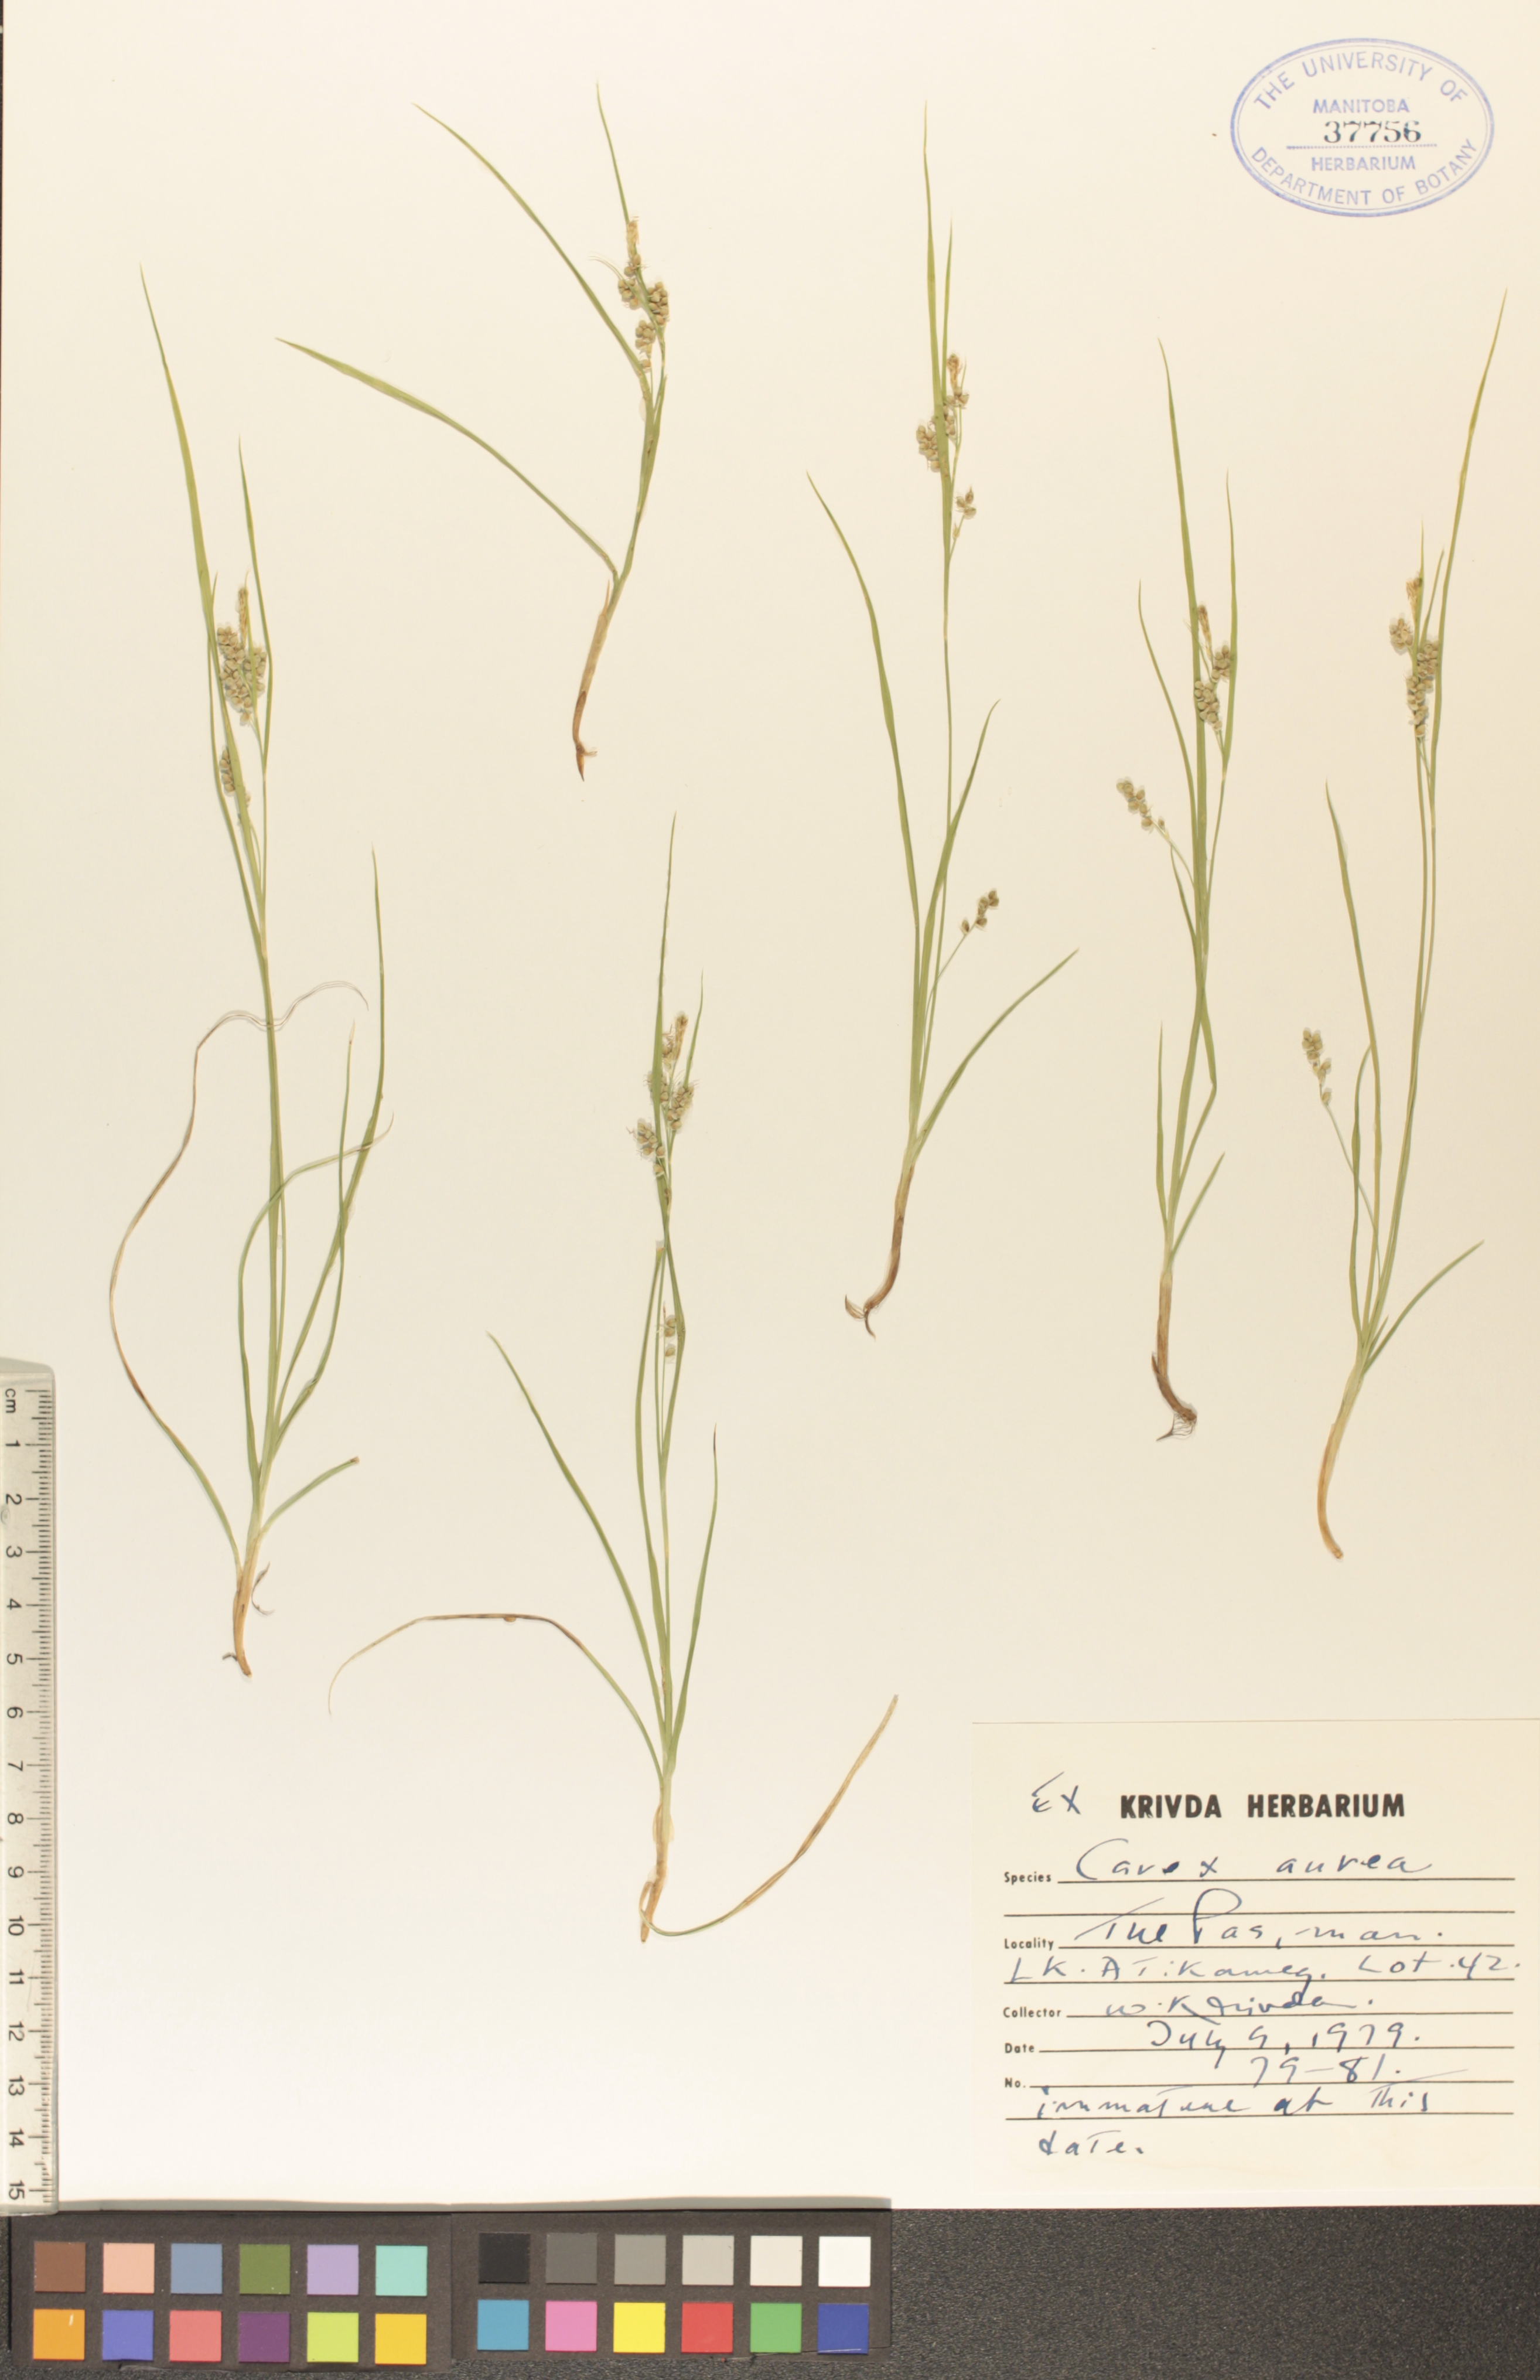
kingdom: Plantae
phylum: Tracheophyta
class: Liliopsida
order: Poales
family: Cyperaceae
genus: Carex
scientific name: Carex aurea
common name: Golden sedge
